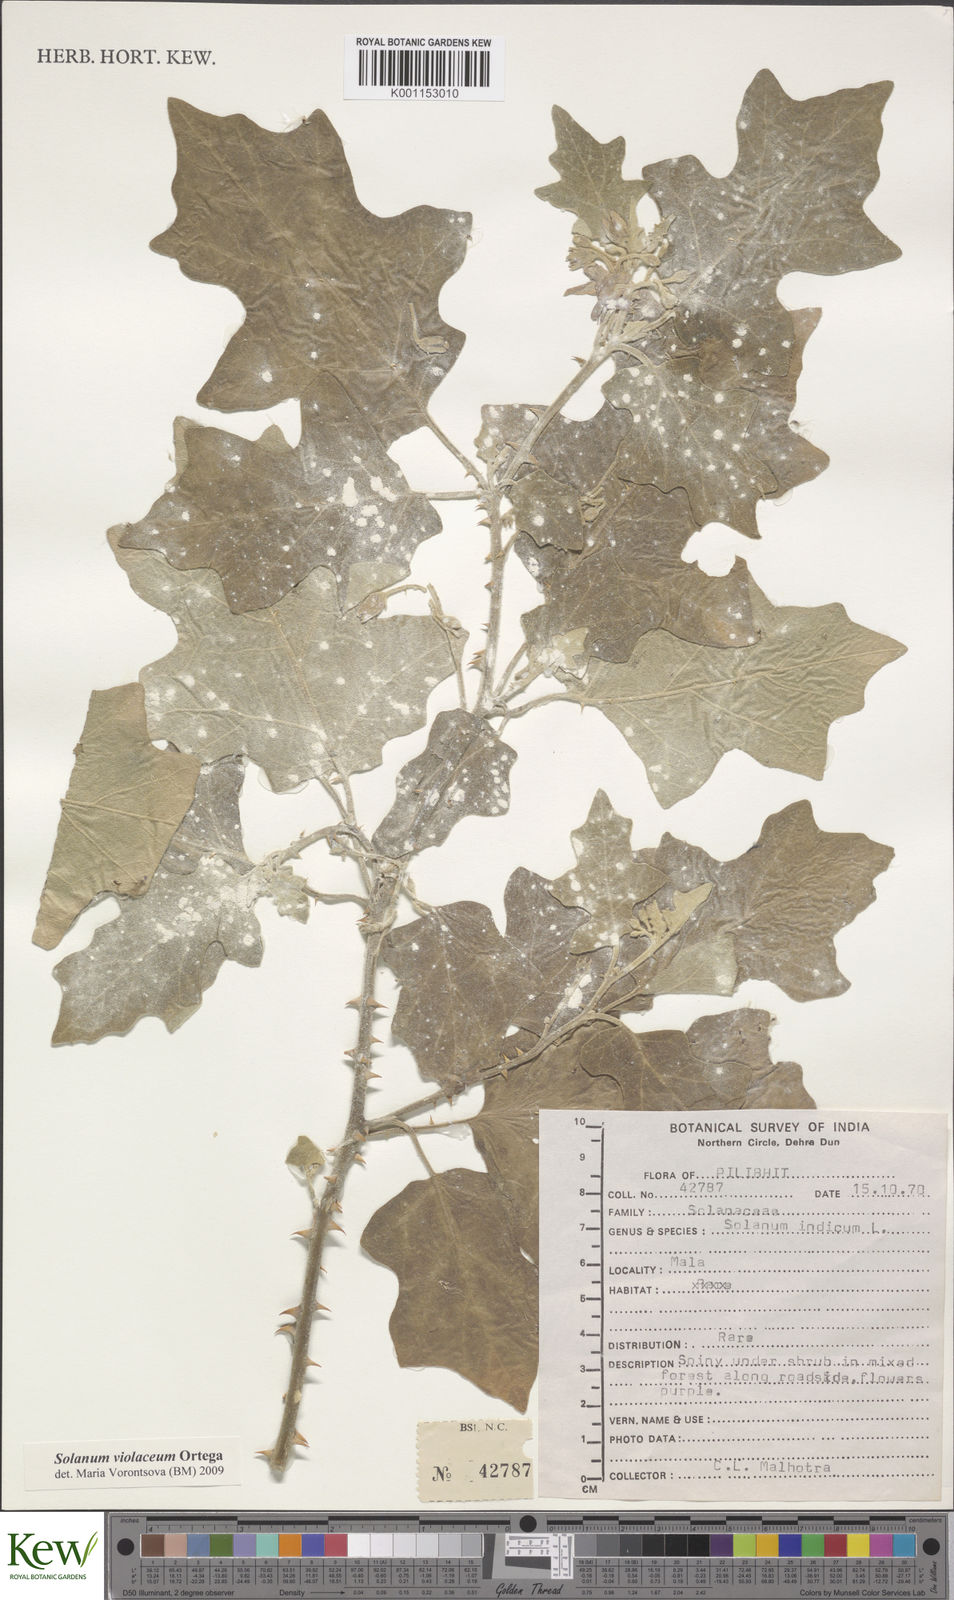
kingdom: Plantae
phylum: Tracheophyta
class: Magnoliopsida
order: Solanales
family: Solanaceae
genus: Solanum
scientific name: Solanum violaceum
